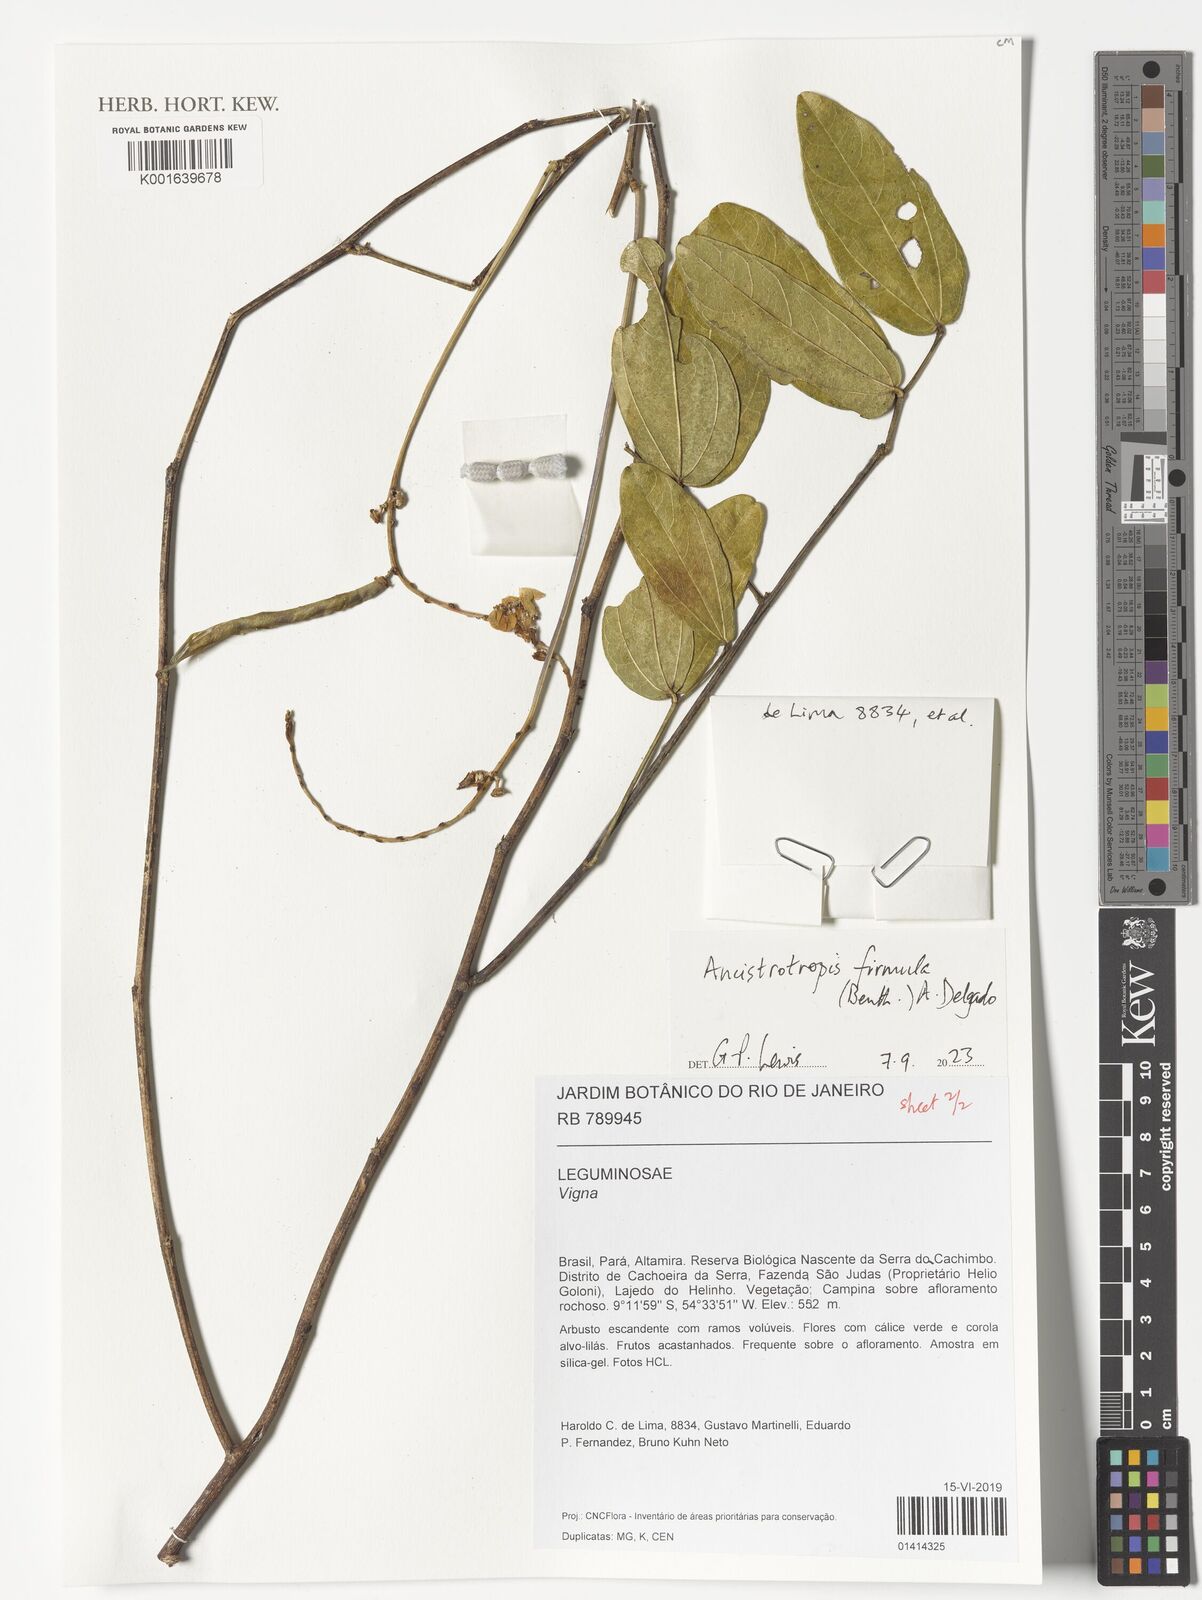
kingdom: Plantae
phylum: Tracheophyta
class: Magnoliopsida
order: Fabales
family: Fabaceae
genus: Ancistrotropis
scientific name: Ancistrotropis firmula
